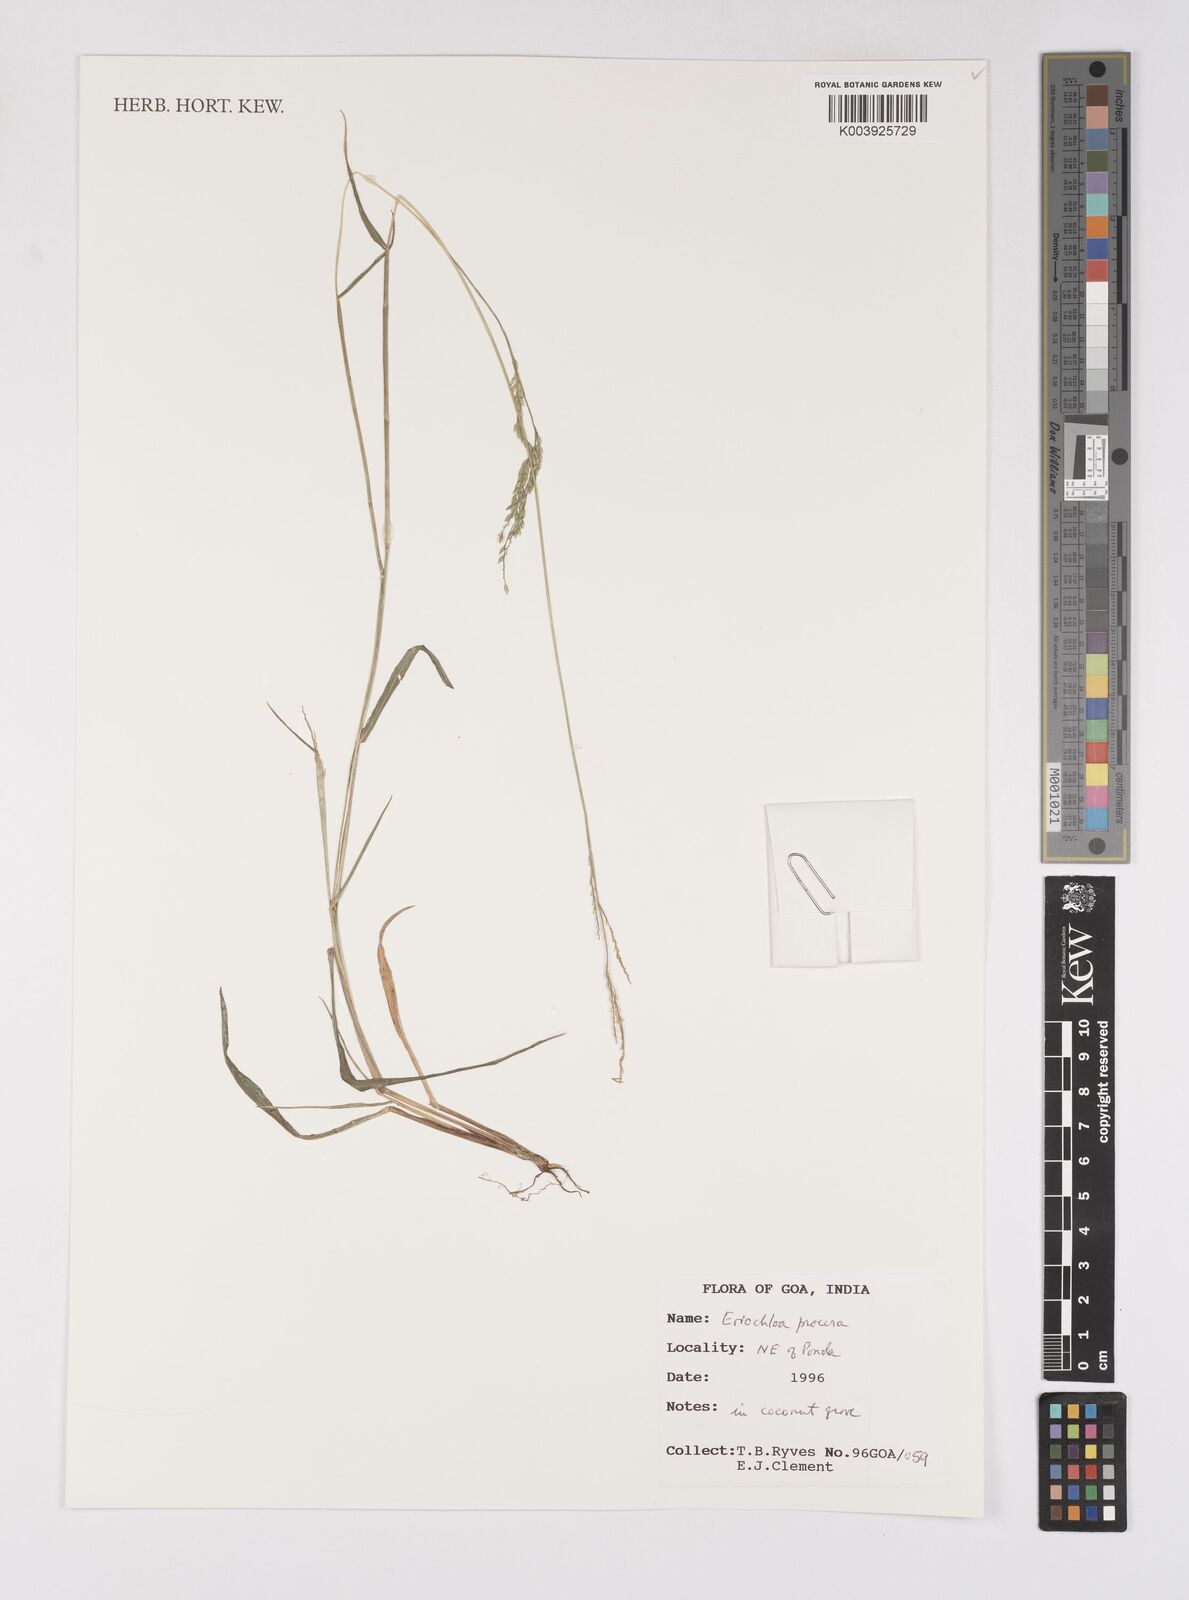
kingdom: Plantae
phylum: Tracheophyta
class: Liliopsida
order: Poales
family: Poaceae
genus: Eriochloa
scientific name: Eriochloa procera
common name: Spring grass
